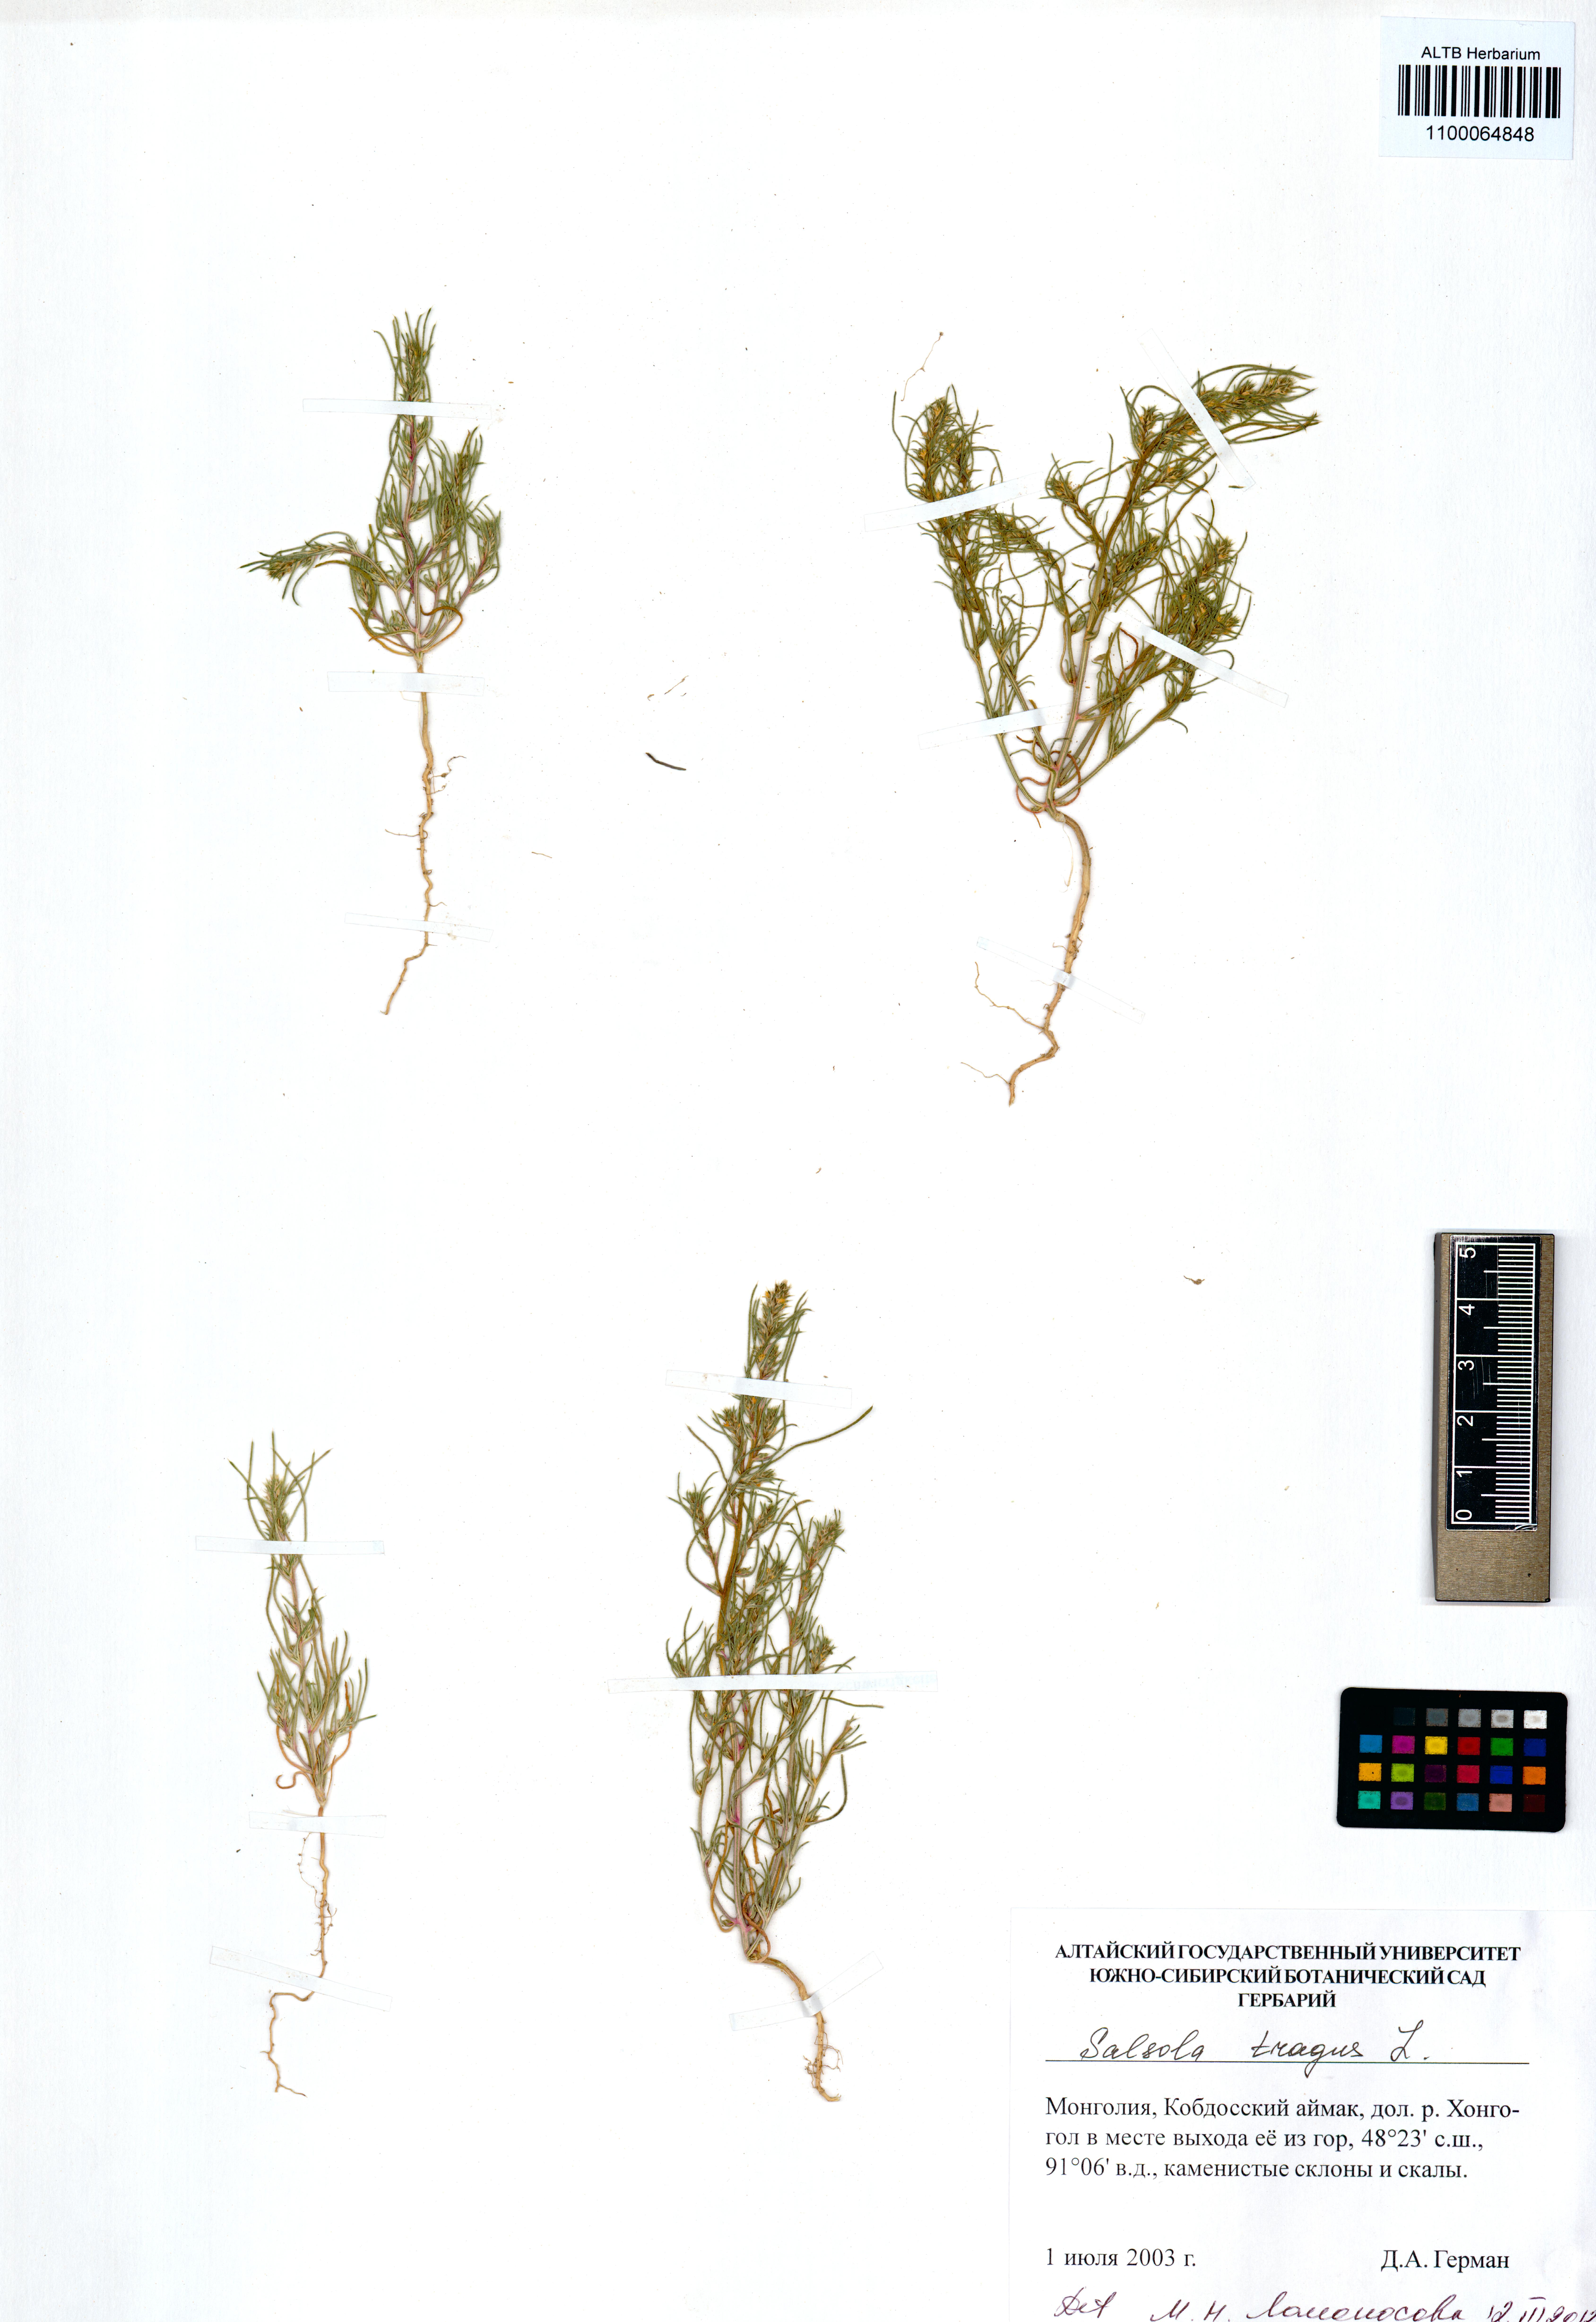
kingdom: Plantae
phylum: Tracheophyta
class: Magnoliopsida
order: Caryophyllales
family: Amaranthaceae
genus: Salsola
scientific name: Salsola tragus
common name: Prickly russian thistle
